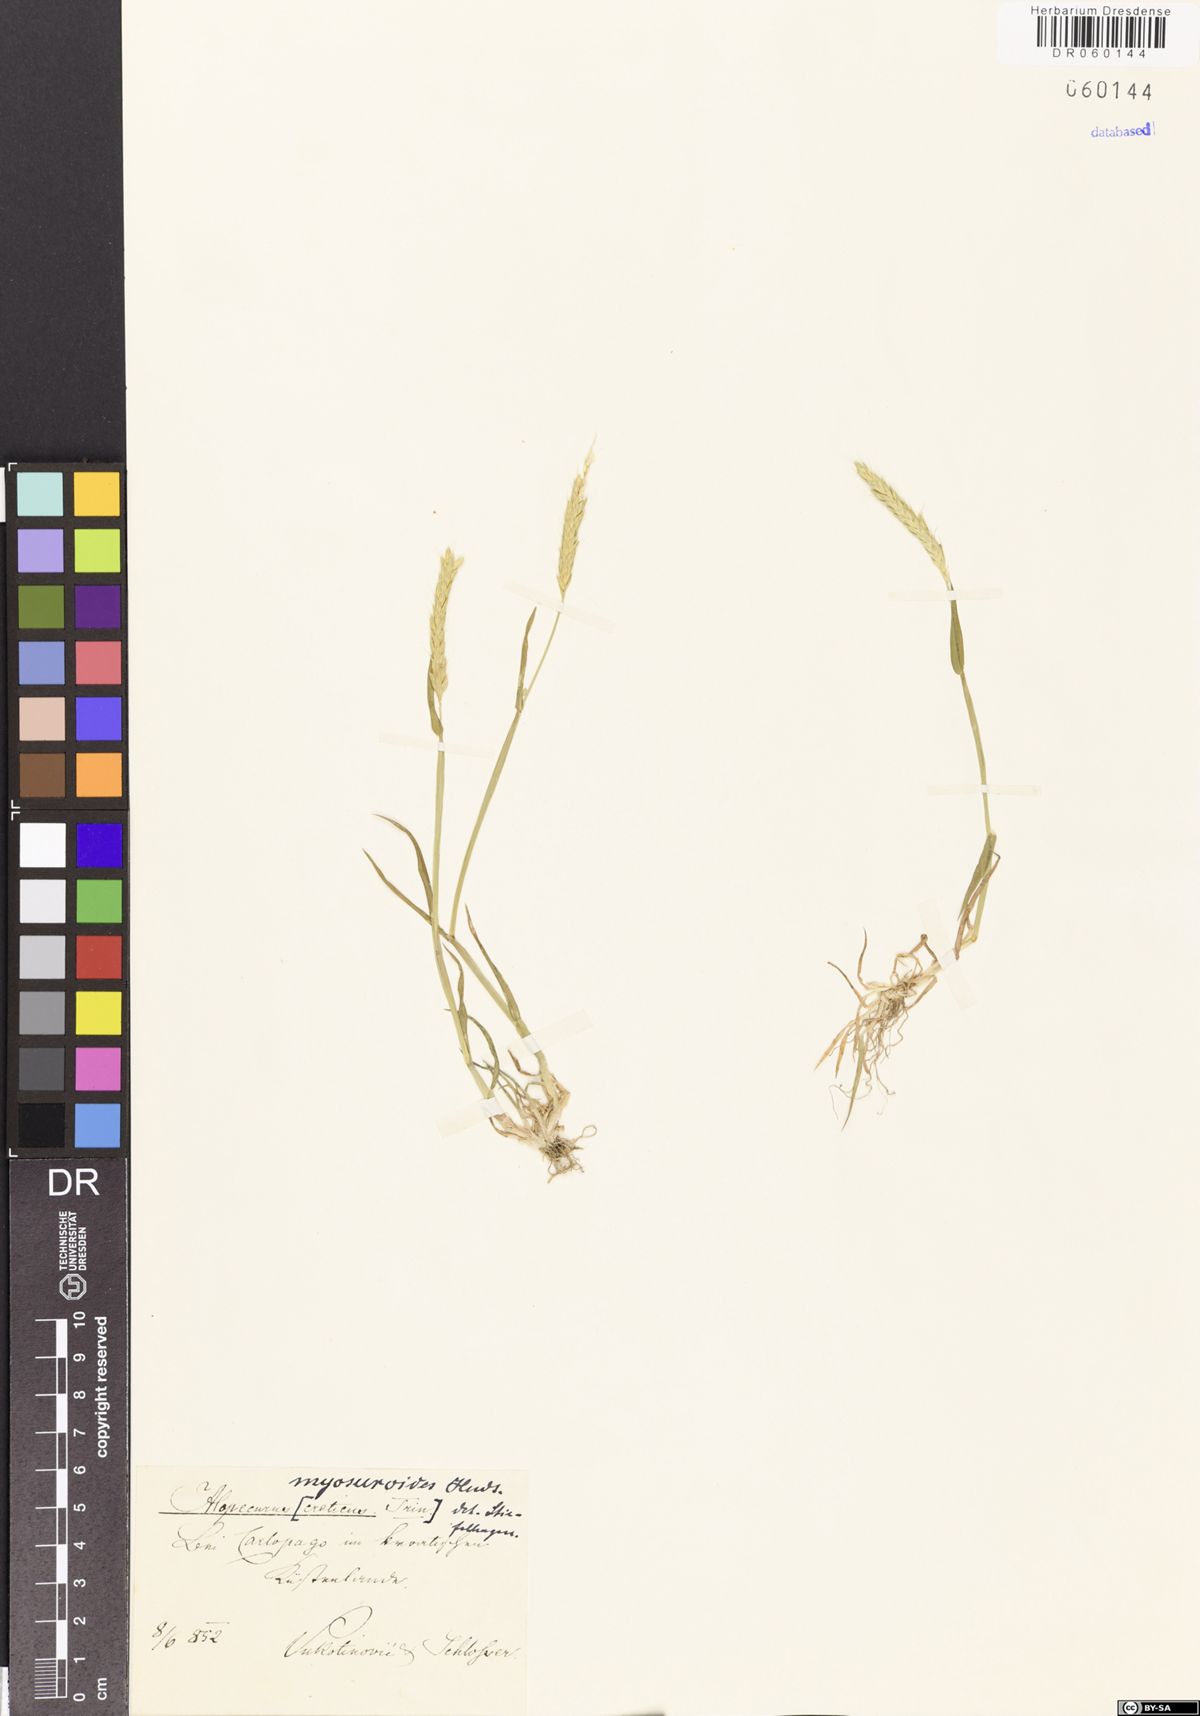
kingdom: Plantae
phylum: Tracheophyta
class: Liliopsida
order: Poales
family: Poaceae
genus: Alopecurus
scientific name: Alopecurus myosuroides
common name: Black-grass
